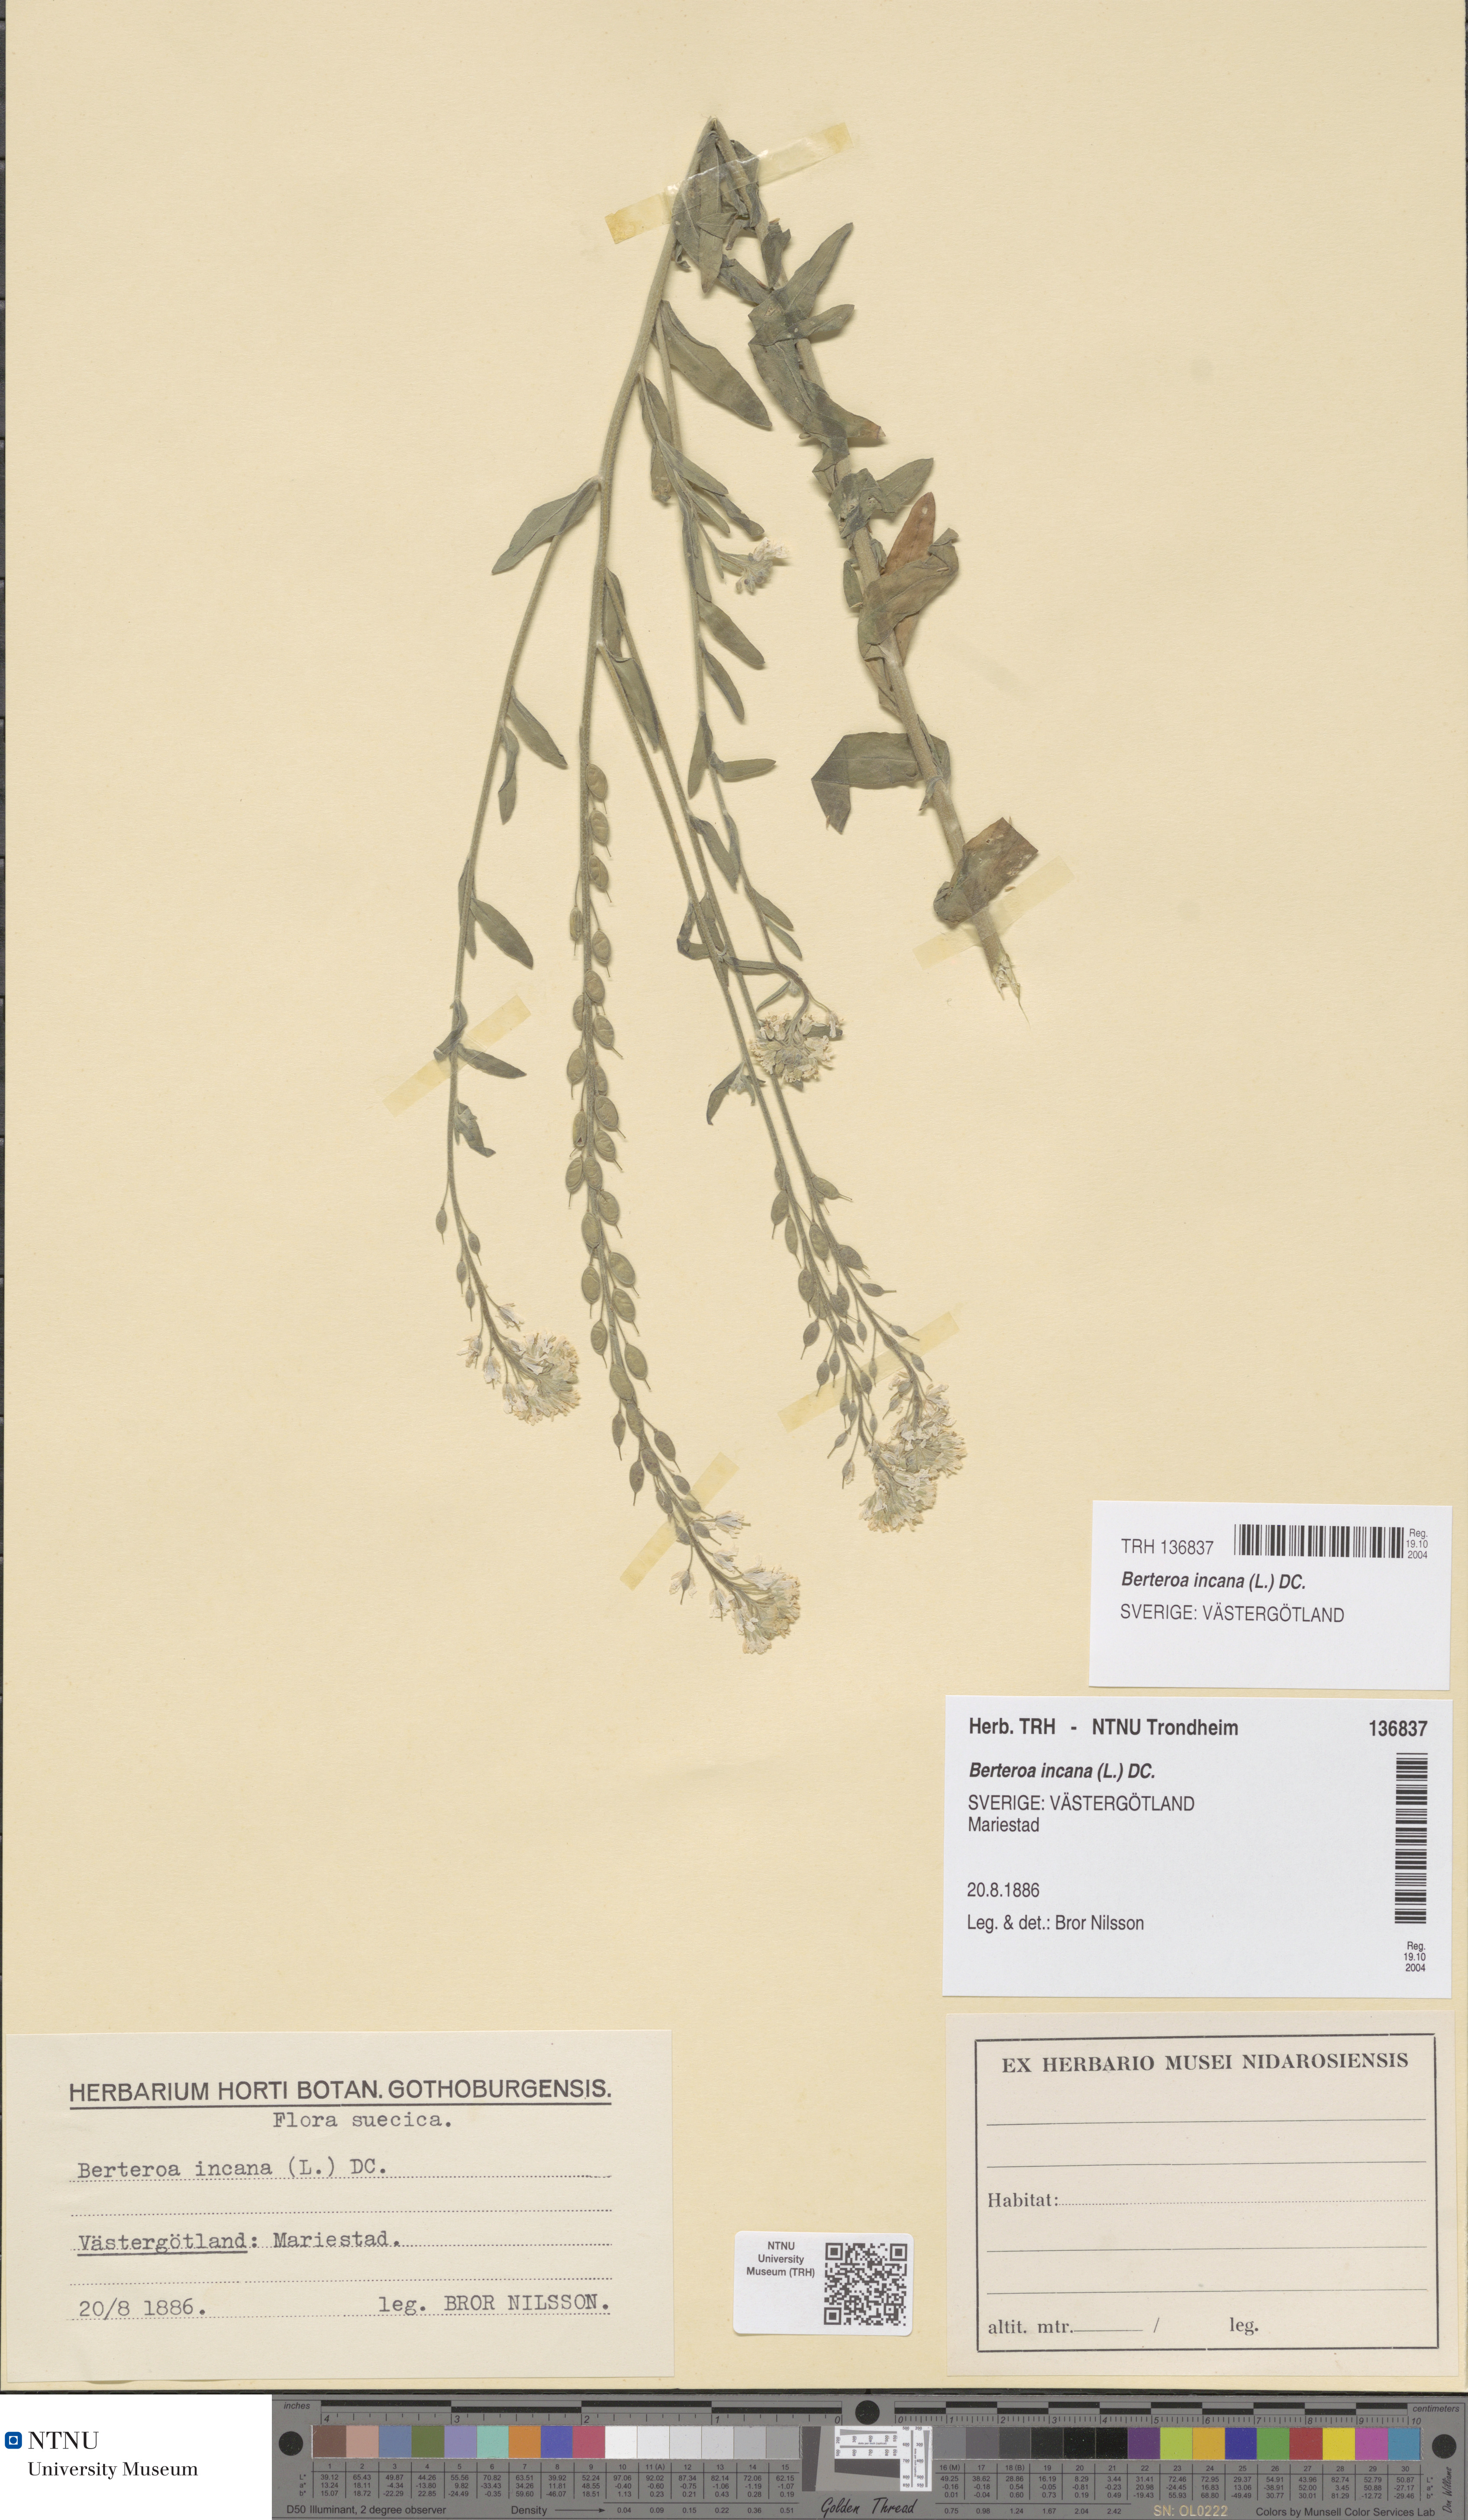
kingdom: Plantae
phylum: Tracheophyta
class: Magnoliopsida
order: Brassicales
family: Brassicaceae
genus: Berteroa
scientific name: Berteroa incana
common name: Hoary alison
